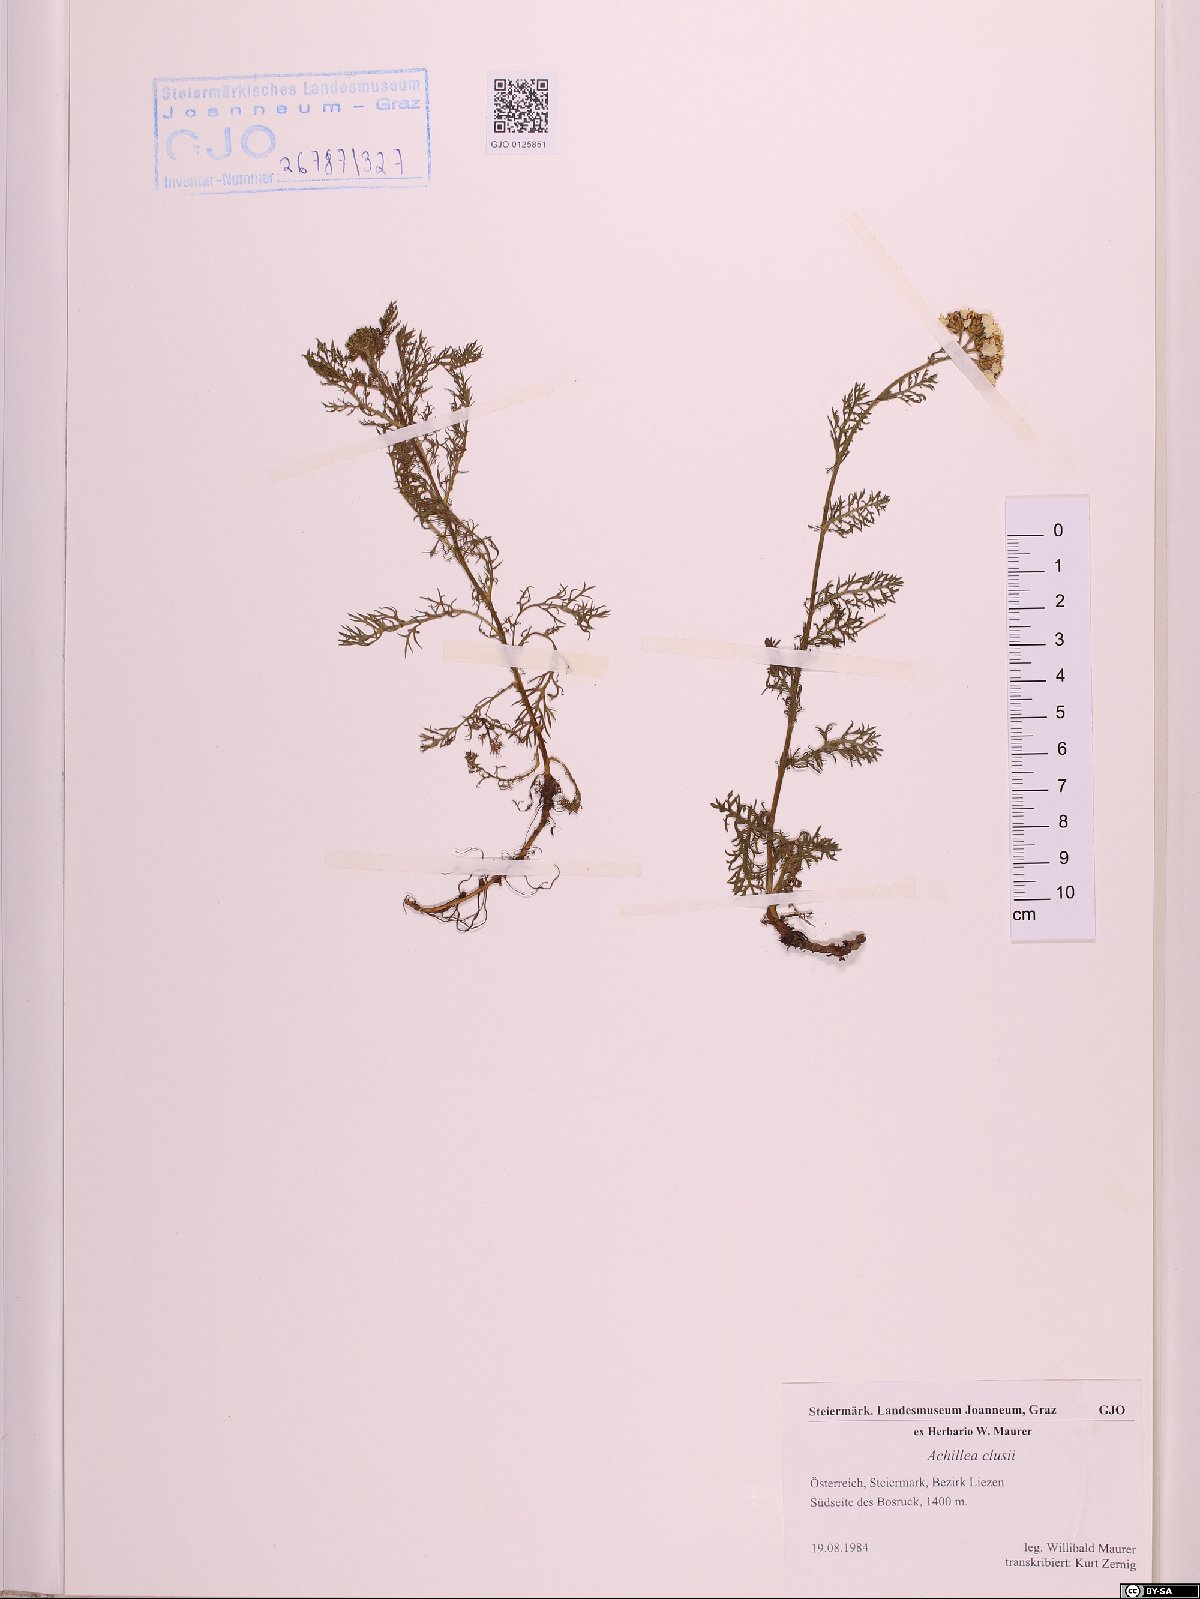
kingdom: Plantae
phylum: Tracheophyta
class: Magnoliopsida
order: Asterales
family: Asteraceae
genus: Achillea
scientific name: Achillea clusiana
